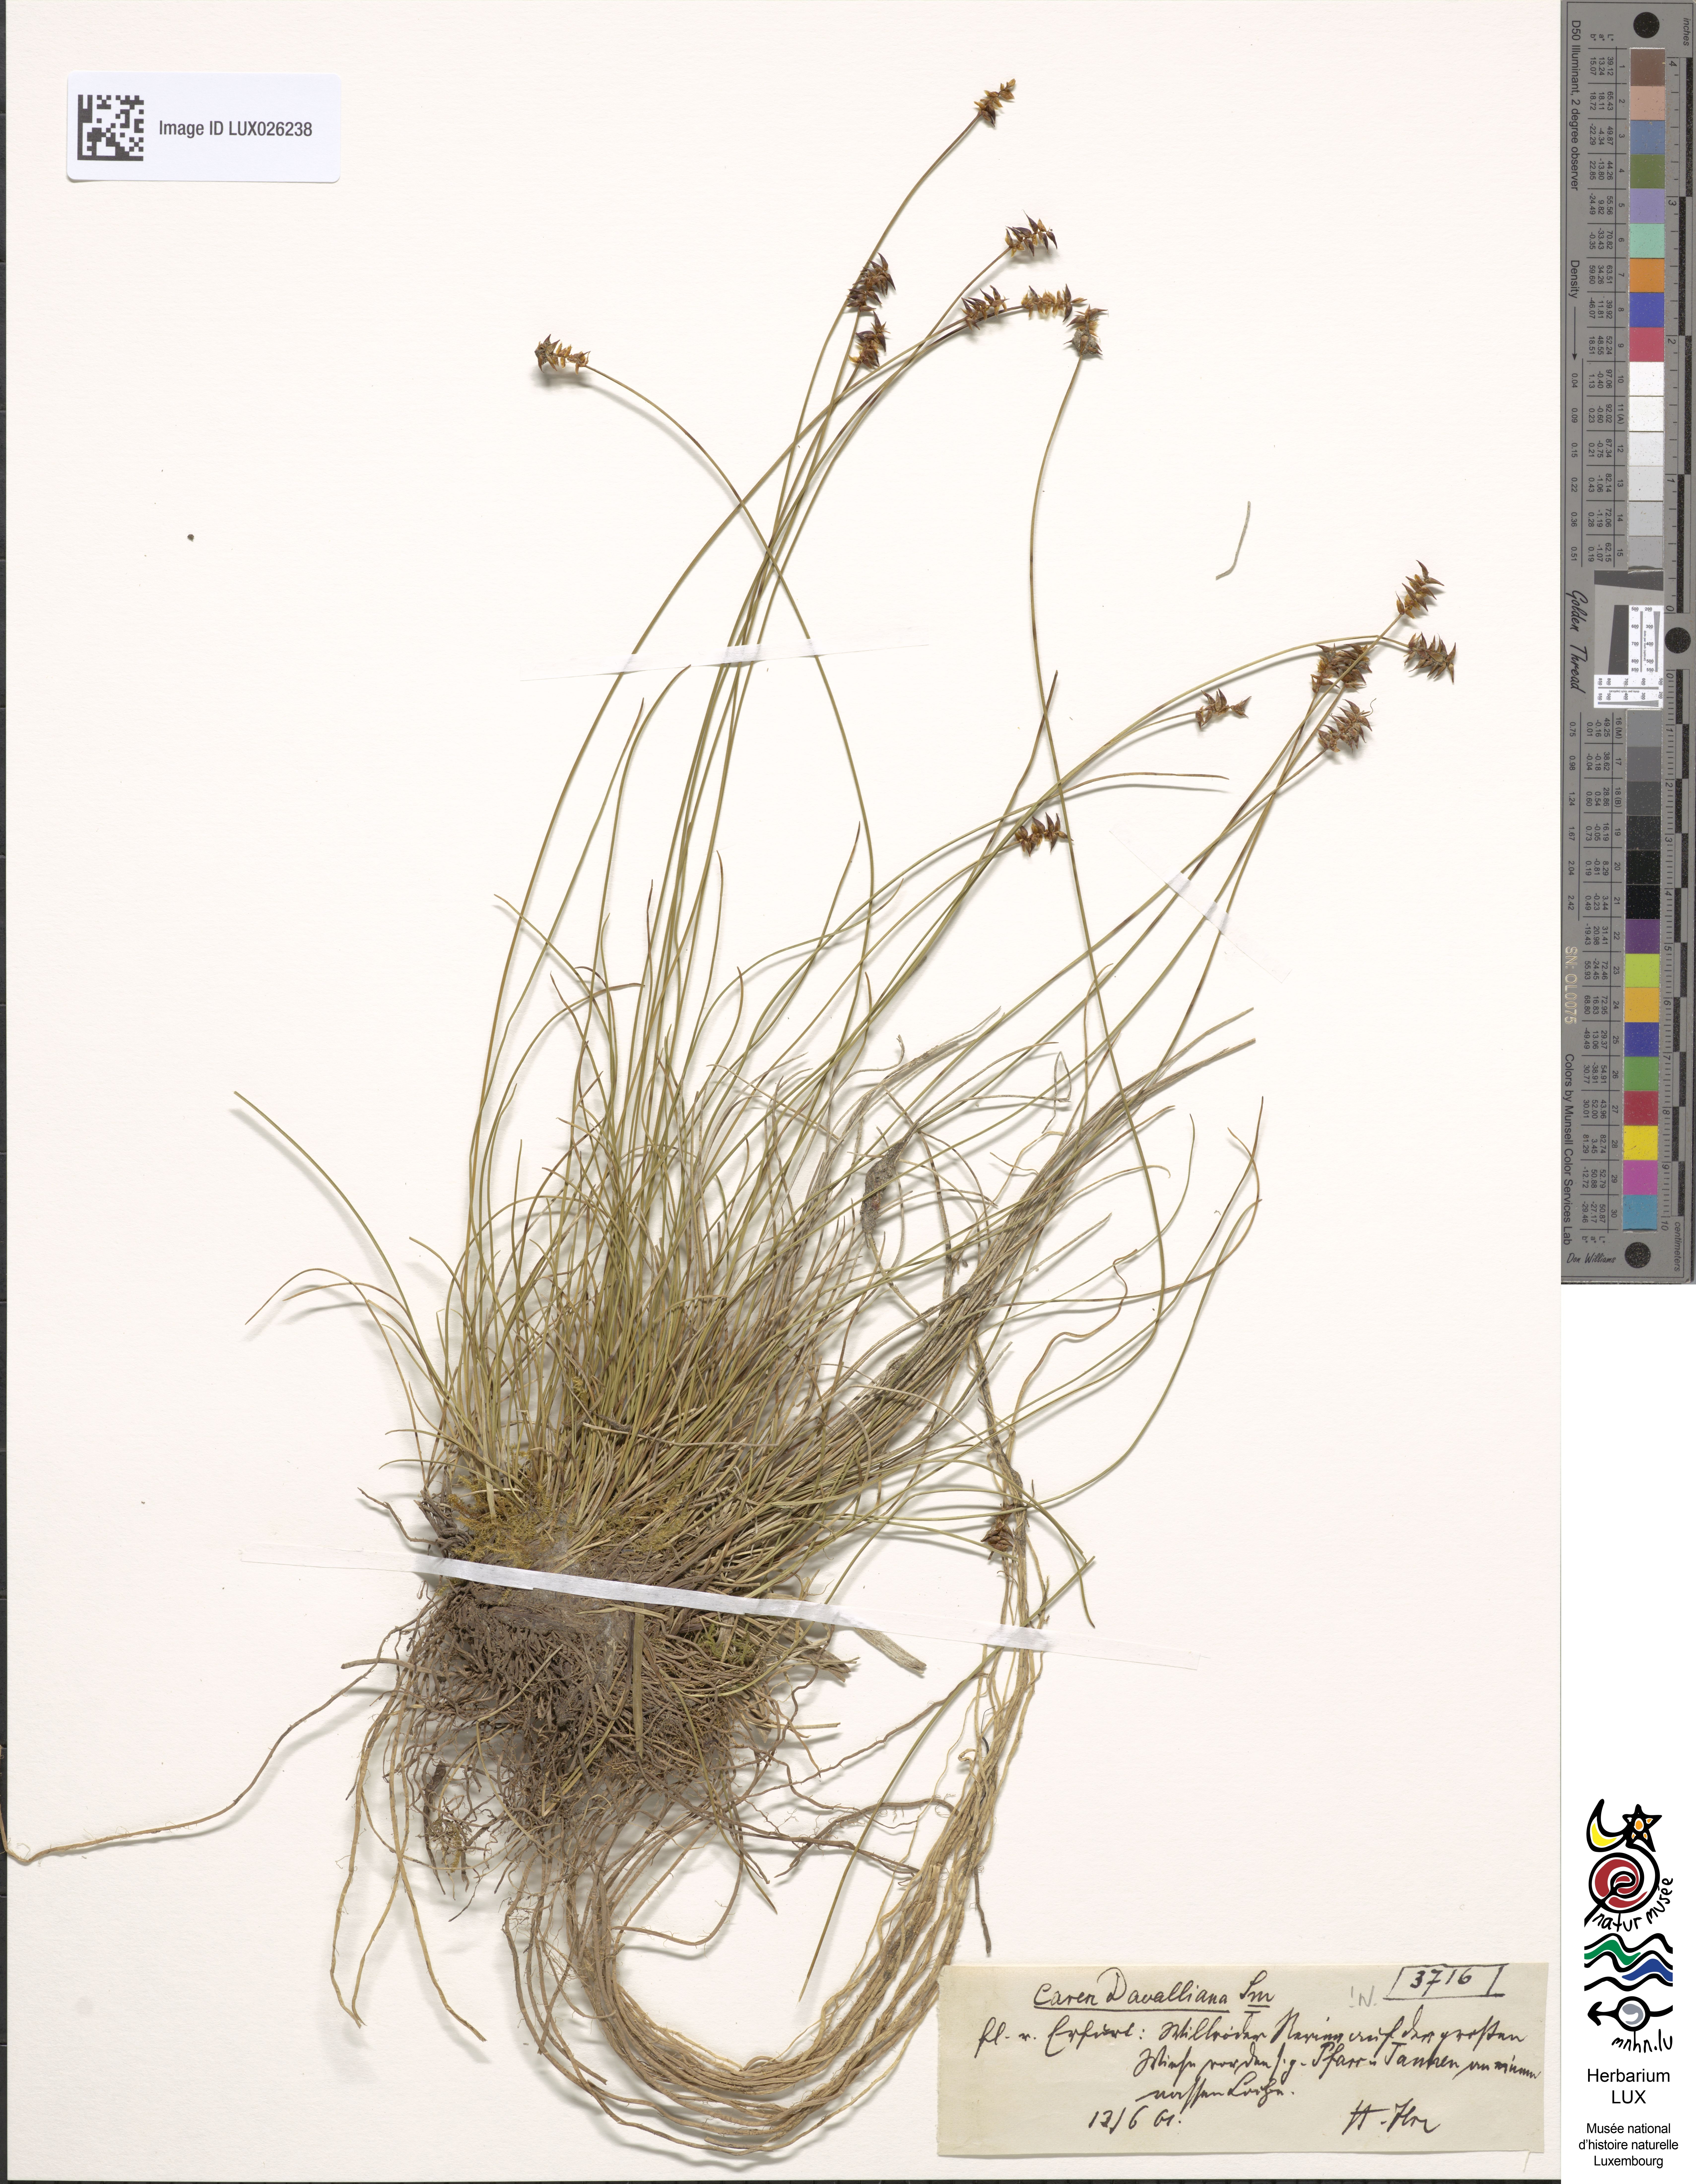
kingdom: Plantae
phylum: Tracheophyta
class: Liliopsida
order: Poales
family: Cyperaceae
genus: Carex
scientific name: Carex davalliana
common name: Davall's sedge
